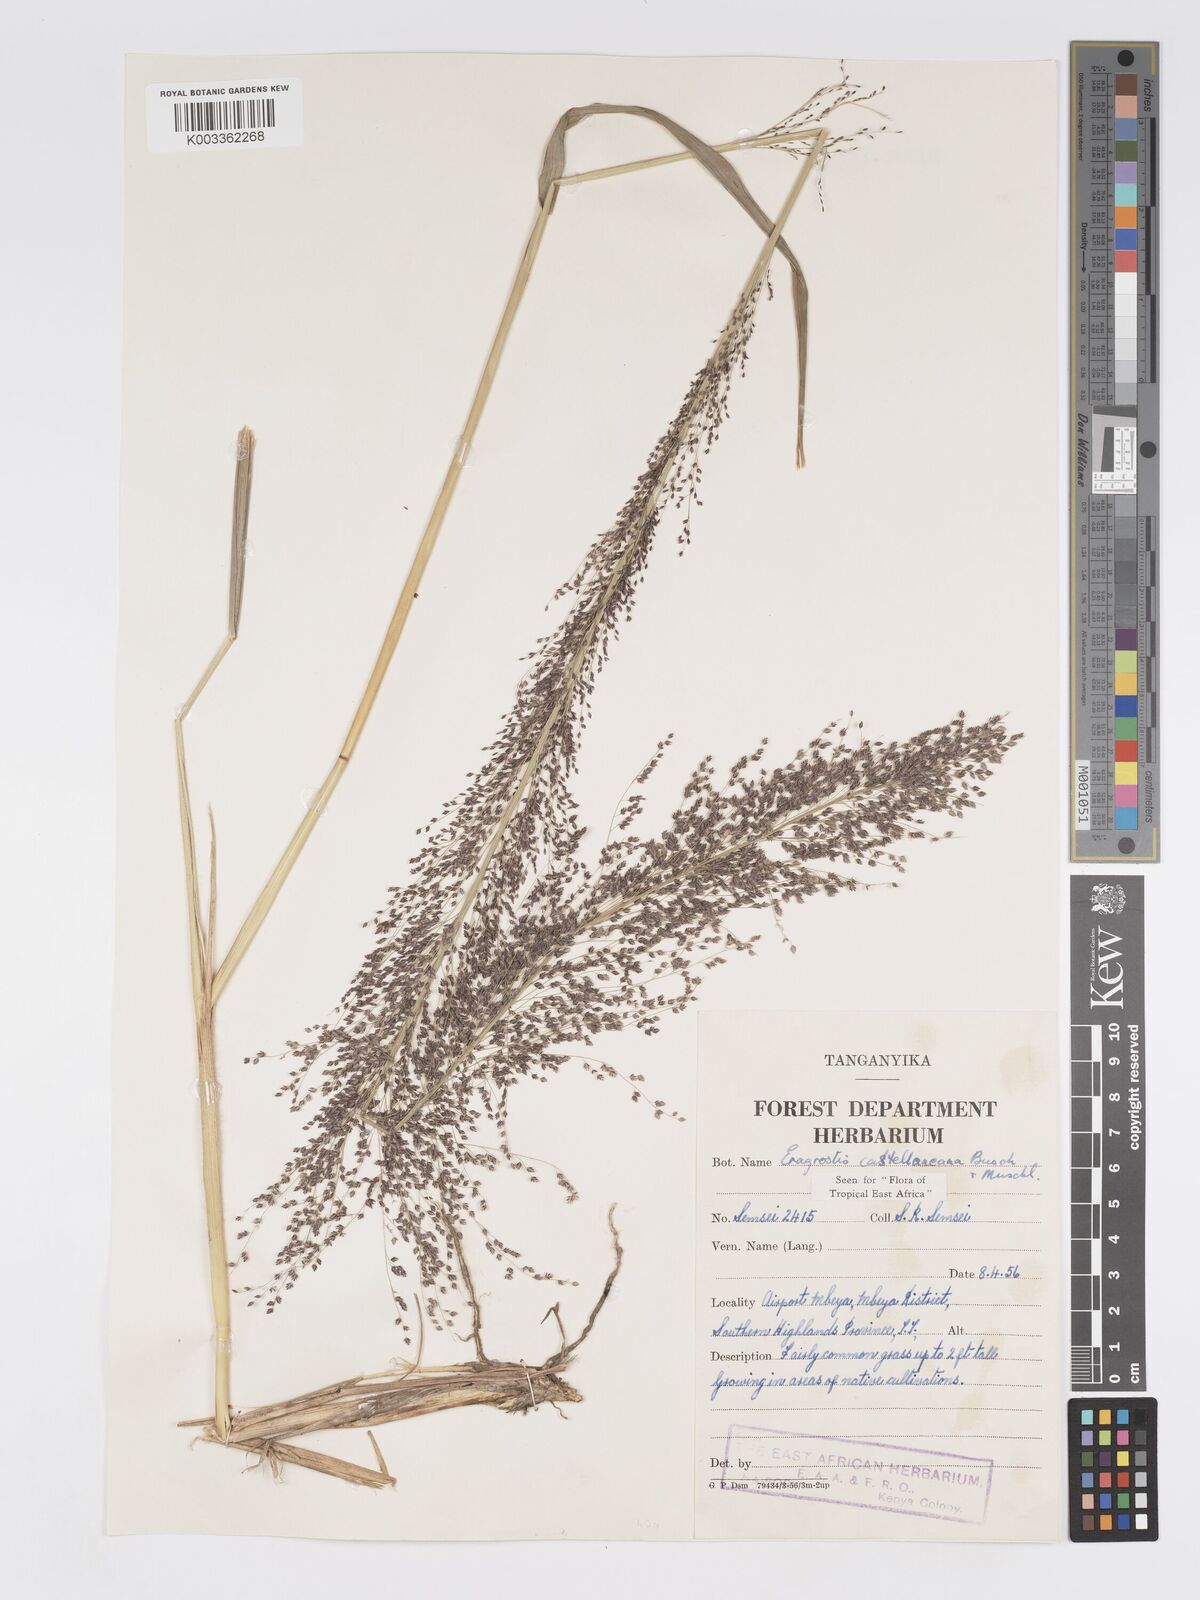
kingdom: Plantae
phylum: Tracheophyta
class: Liliopsida
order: Poales
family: Poaceae
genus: Eragrostis
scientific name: Eragrostis castellaneana
